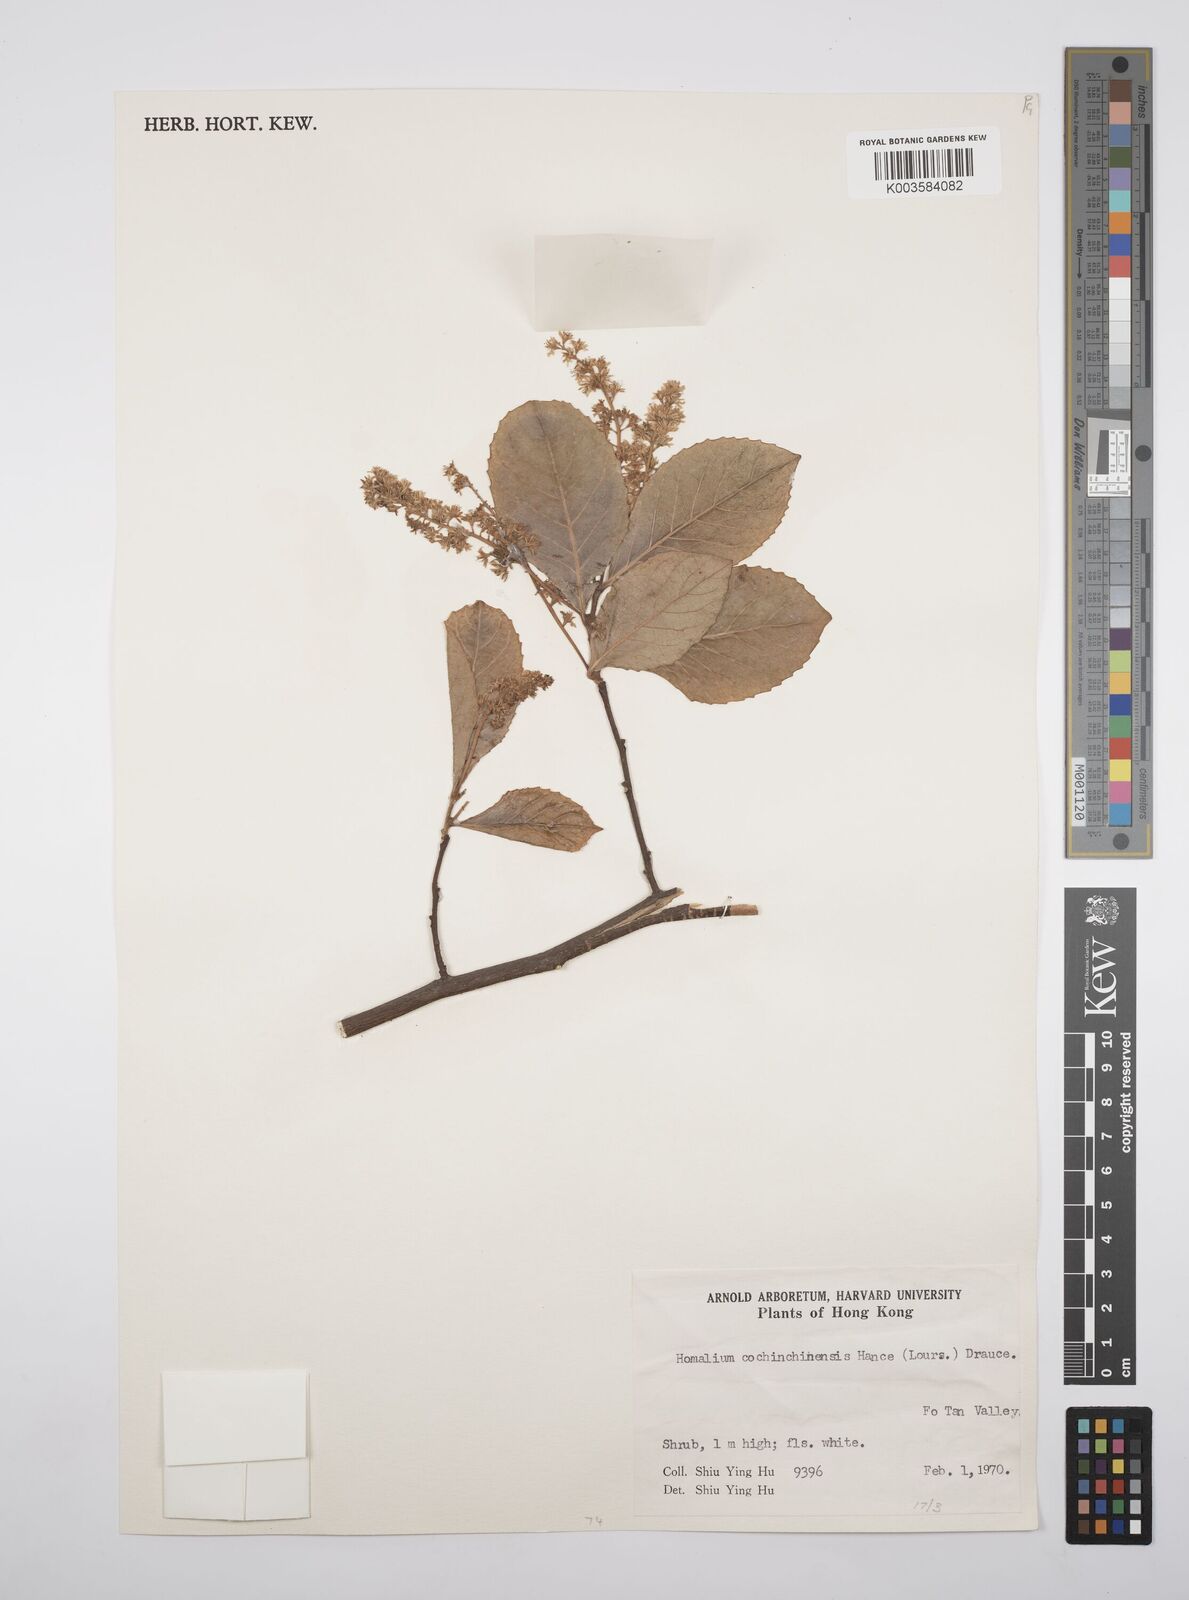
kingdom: Plantae
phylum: Tracheophyta
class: Magnoliopsida
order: Malpighiales
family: Salicaceae
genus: Homalium
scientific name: Homalium cochinchinensis
